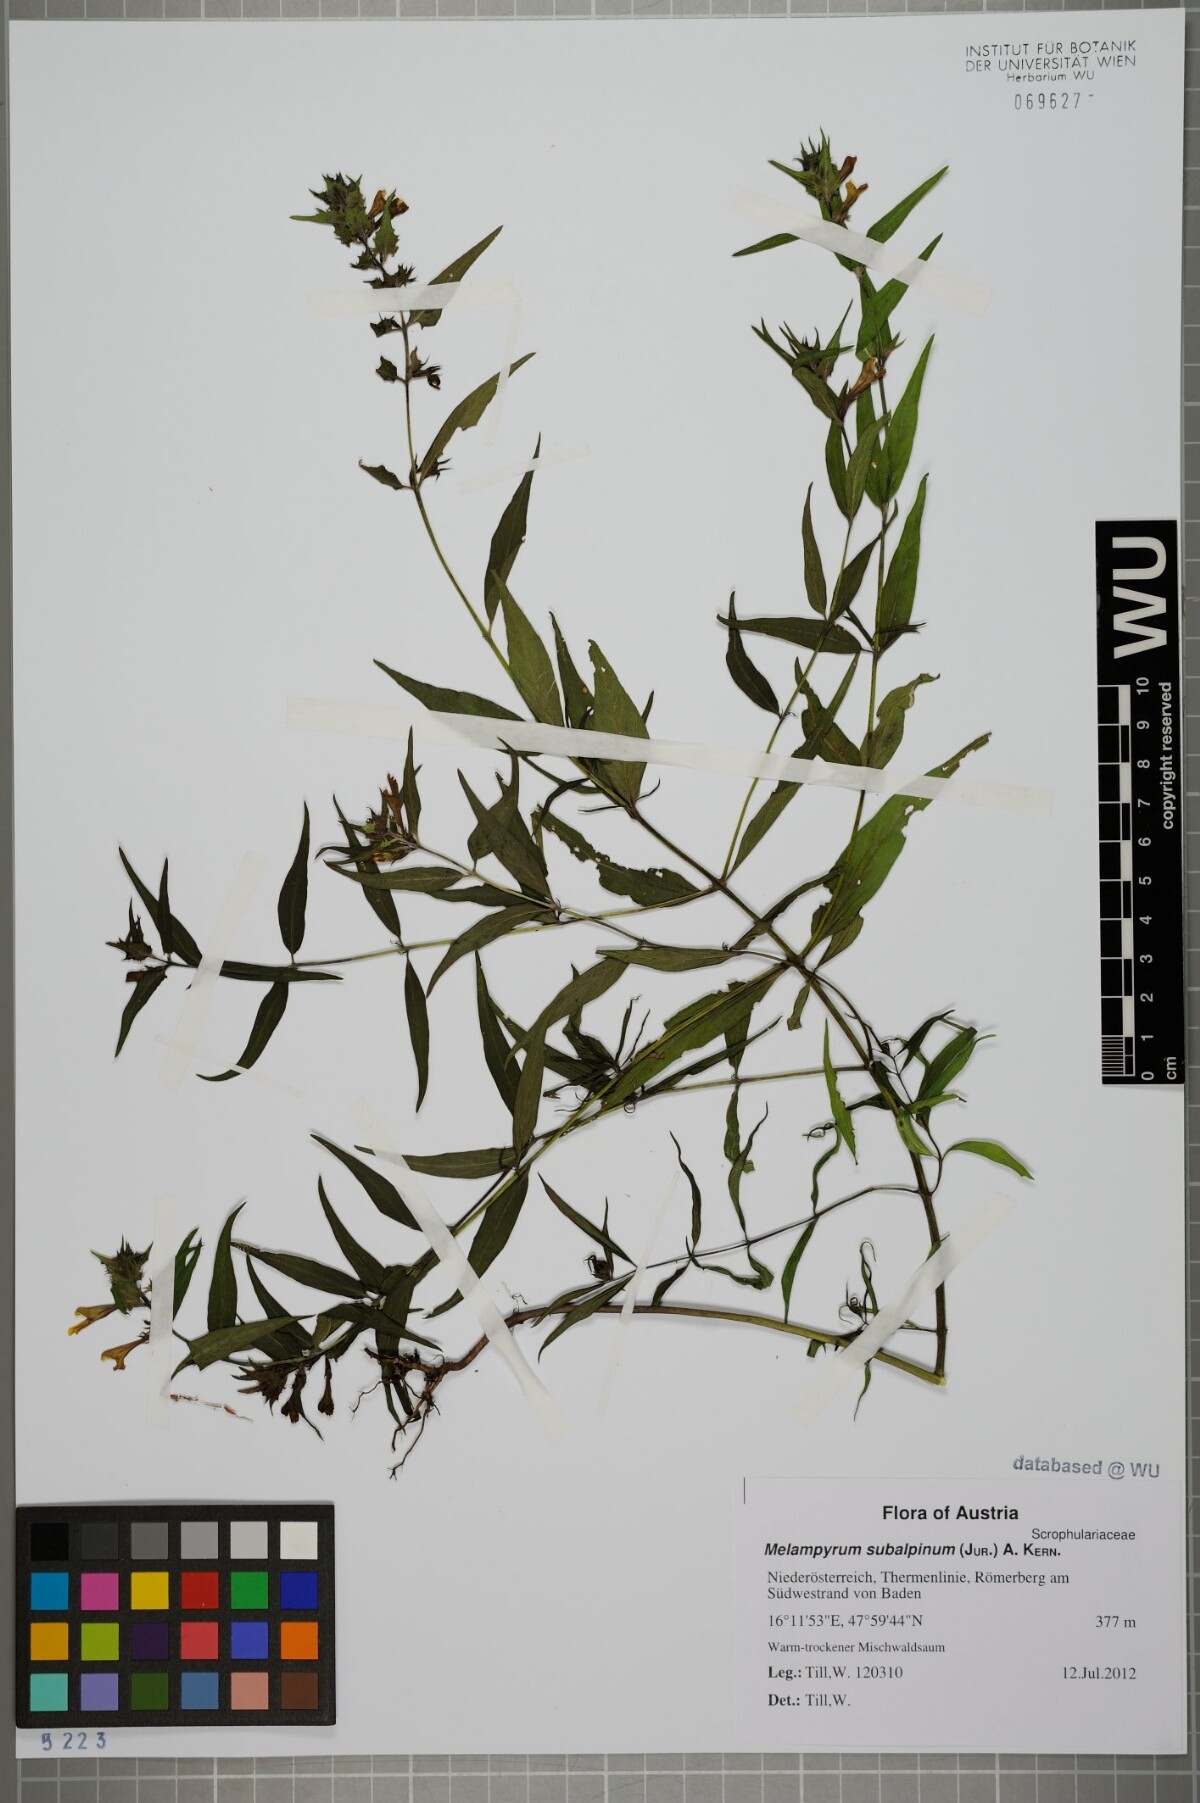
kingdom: Plantae
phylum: Tracheophyta
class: Magnoliopsida
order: Lamiales
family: Orobanchaceae
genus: Melampyrum
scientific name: Melampyrum subalpinum
